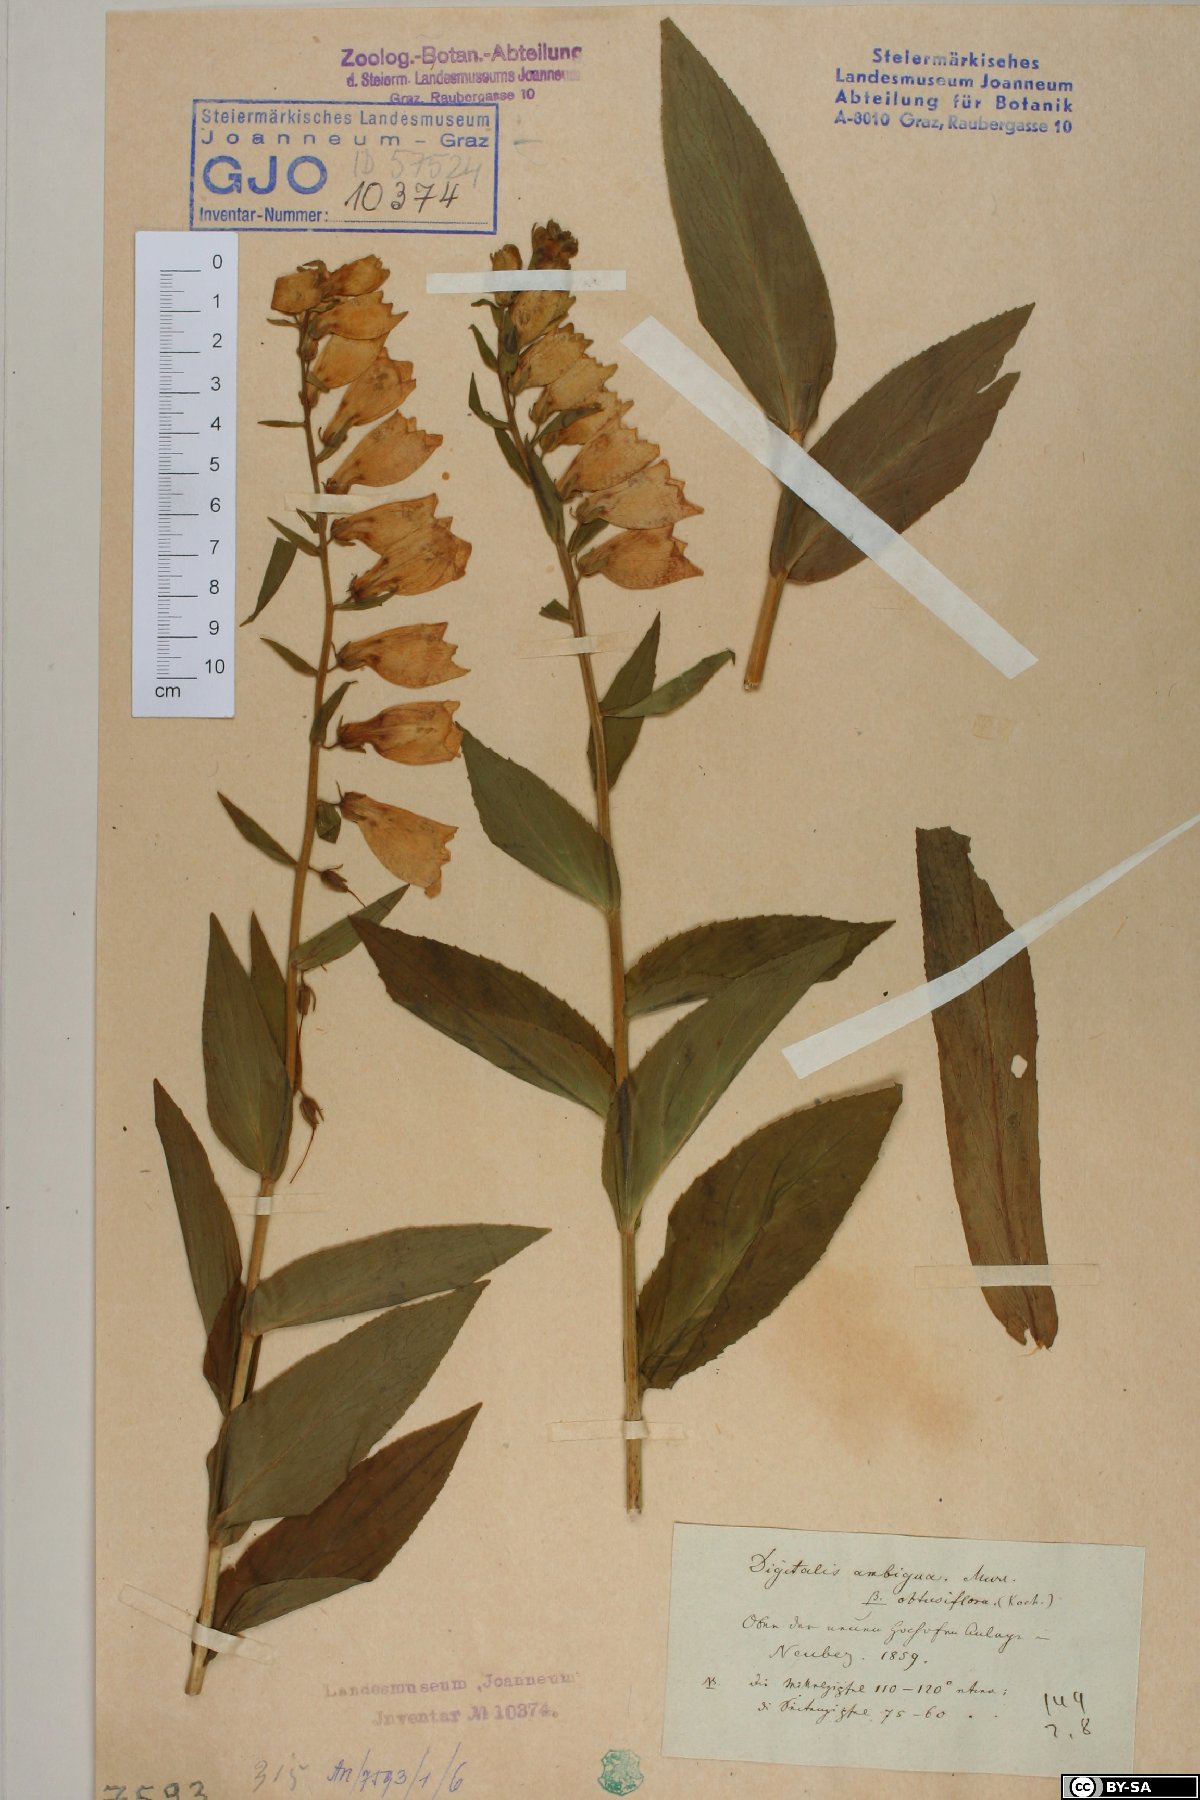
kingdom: Plantae
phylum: Tracheophyta
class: Magnoliopsida
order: Lamiales
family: Plantaginaceae
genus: Digitalis
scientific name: Digitalis grandiflora
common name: Yellow foxglove
